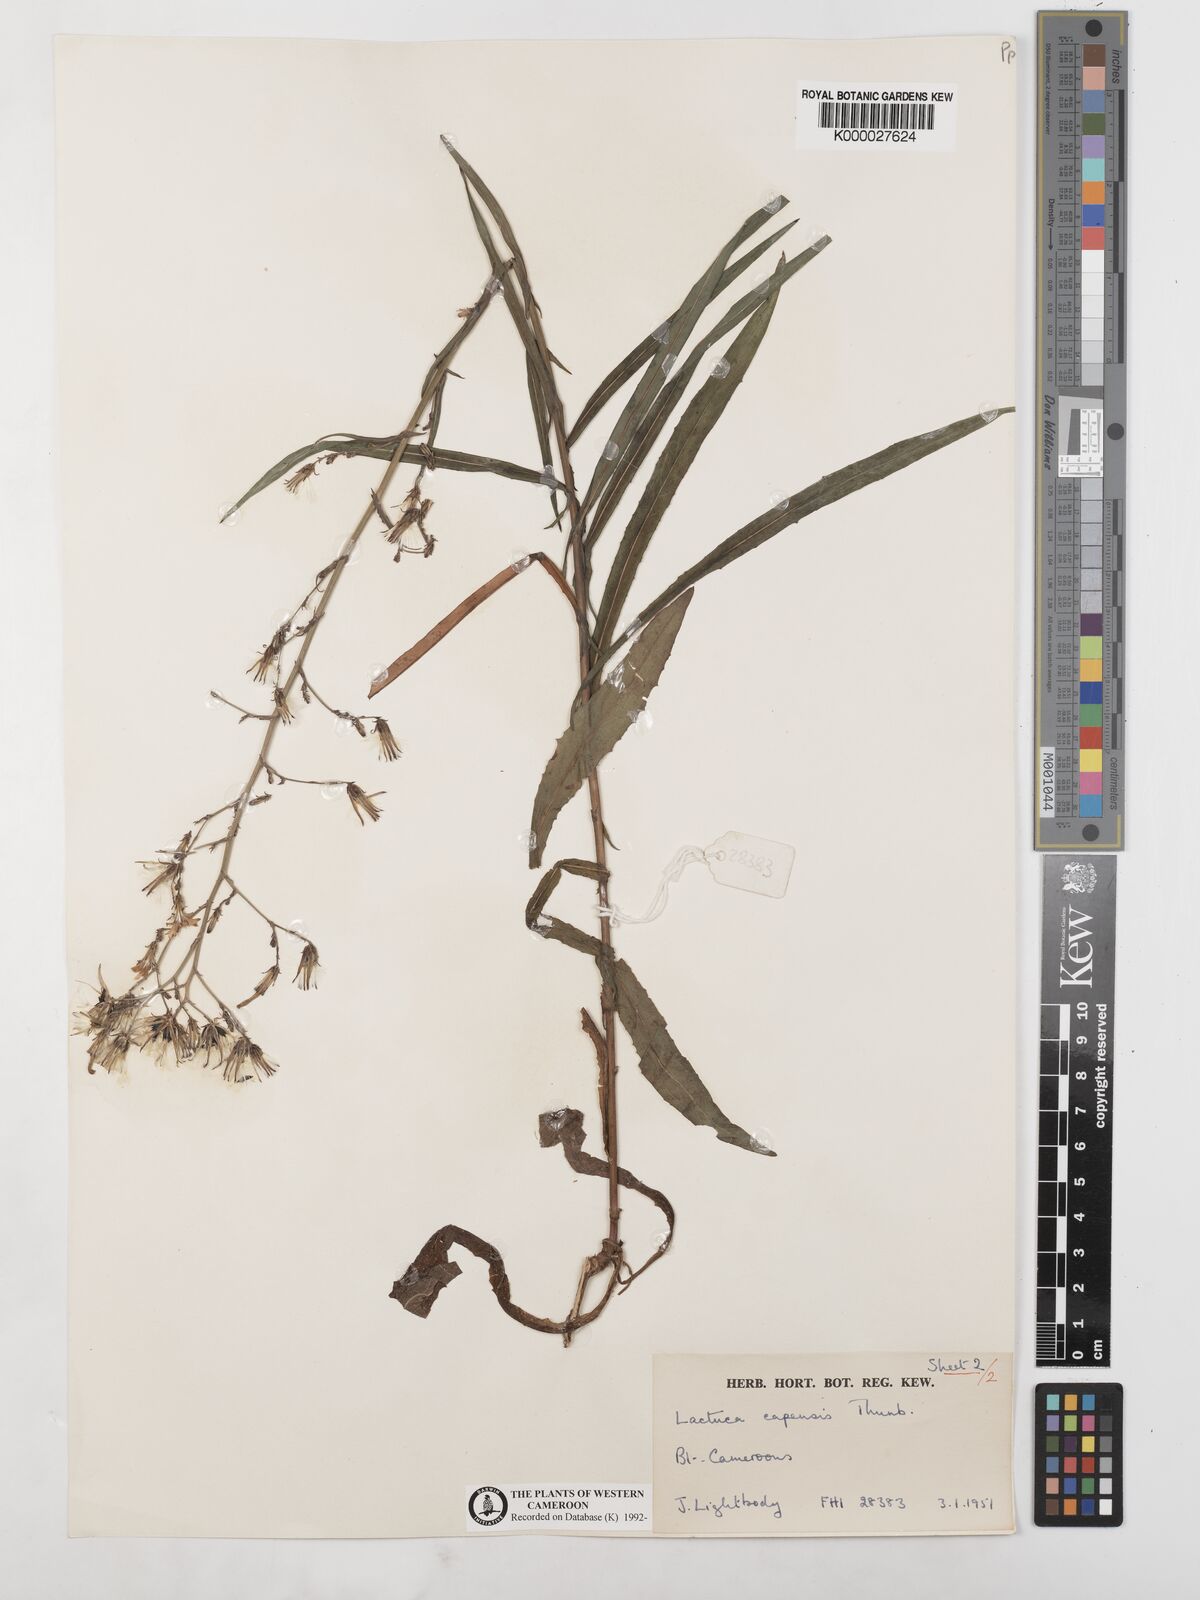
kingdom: Plantae
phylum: Tracheophyta
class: Magnoliopsida
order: Asterales
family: Asteraceae
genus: Lactuca
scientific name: Lactuca inermis
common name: Wild lettuce
